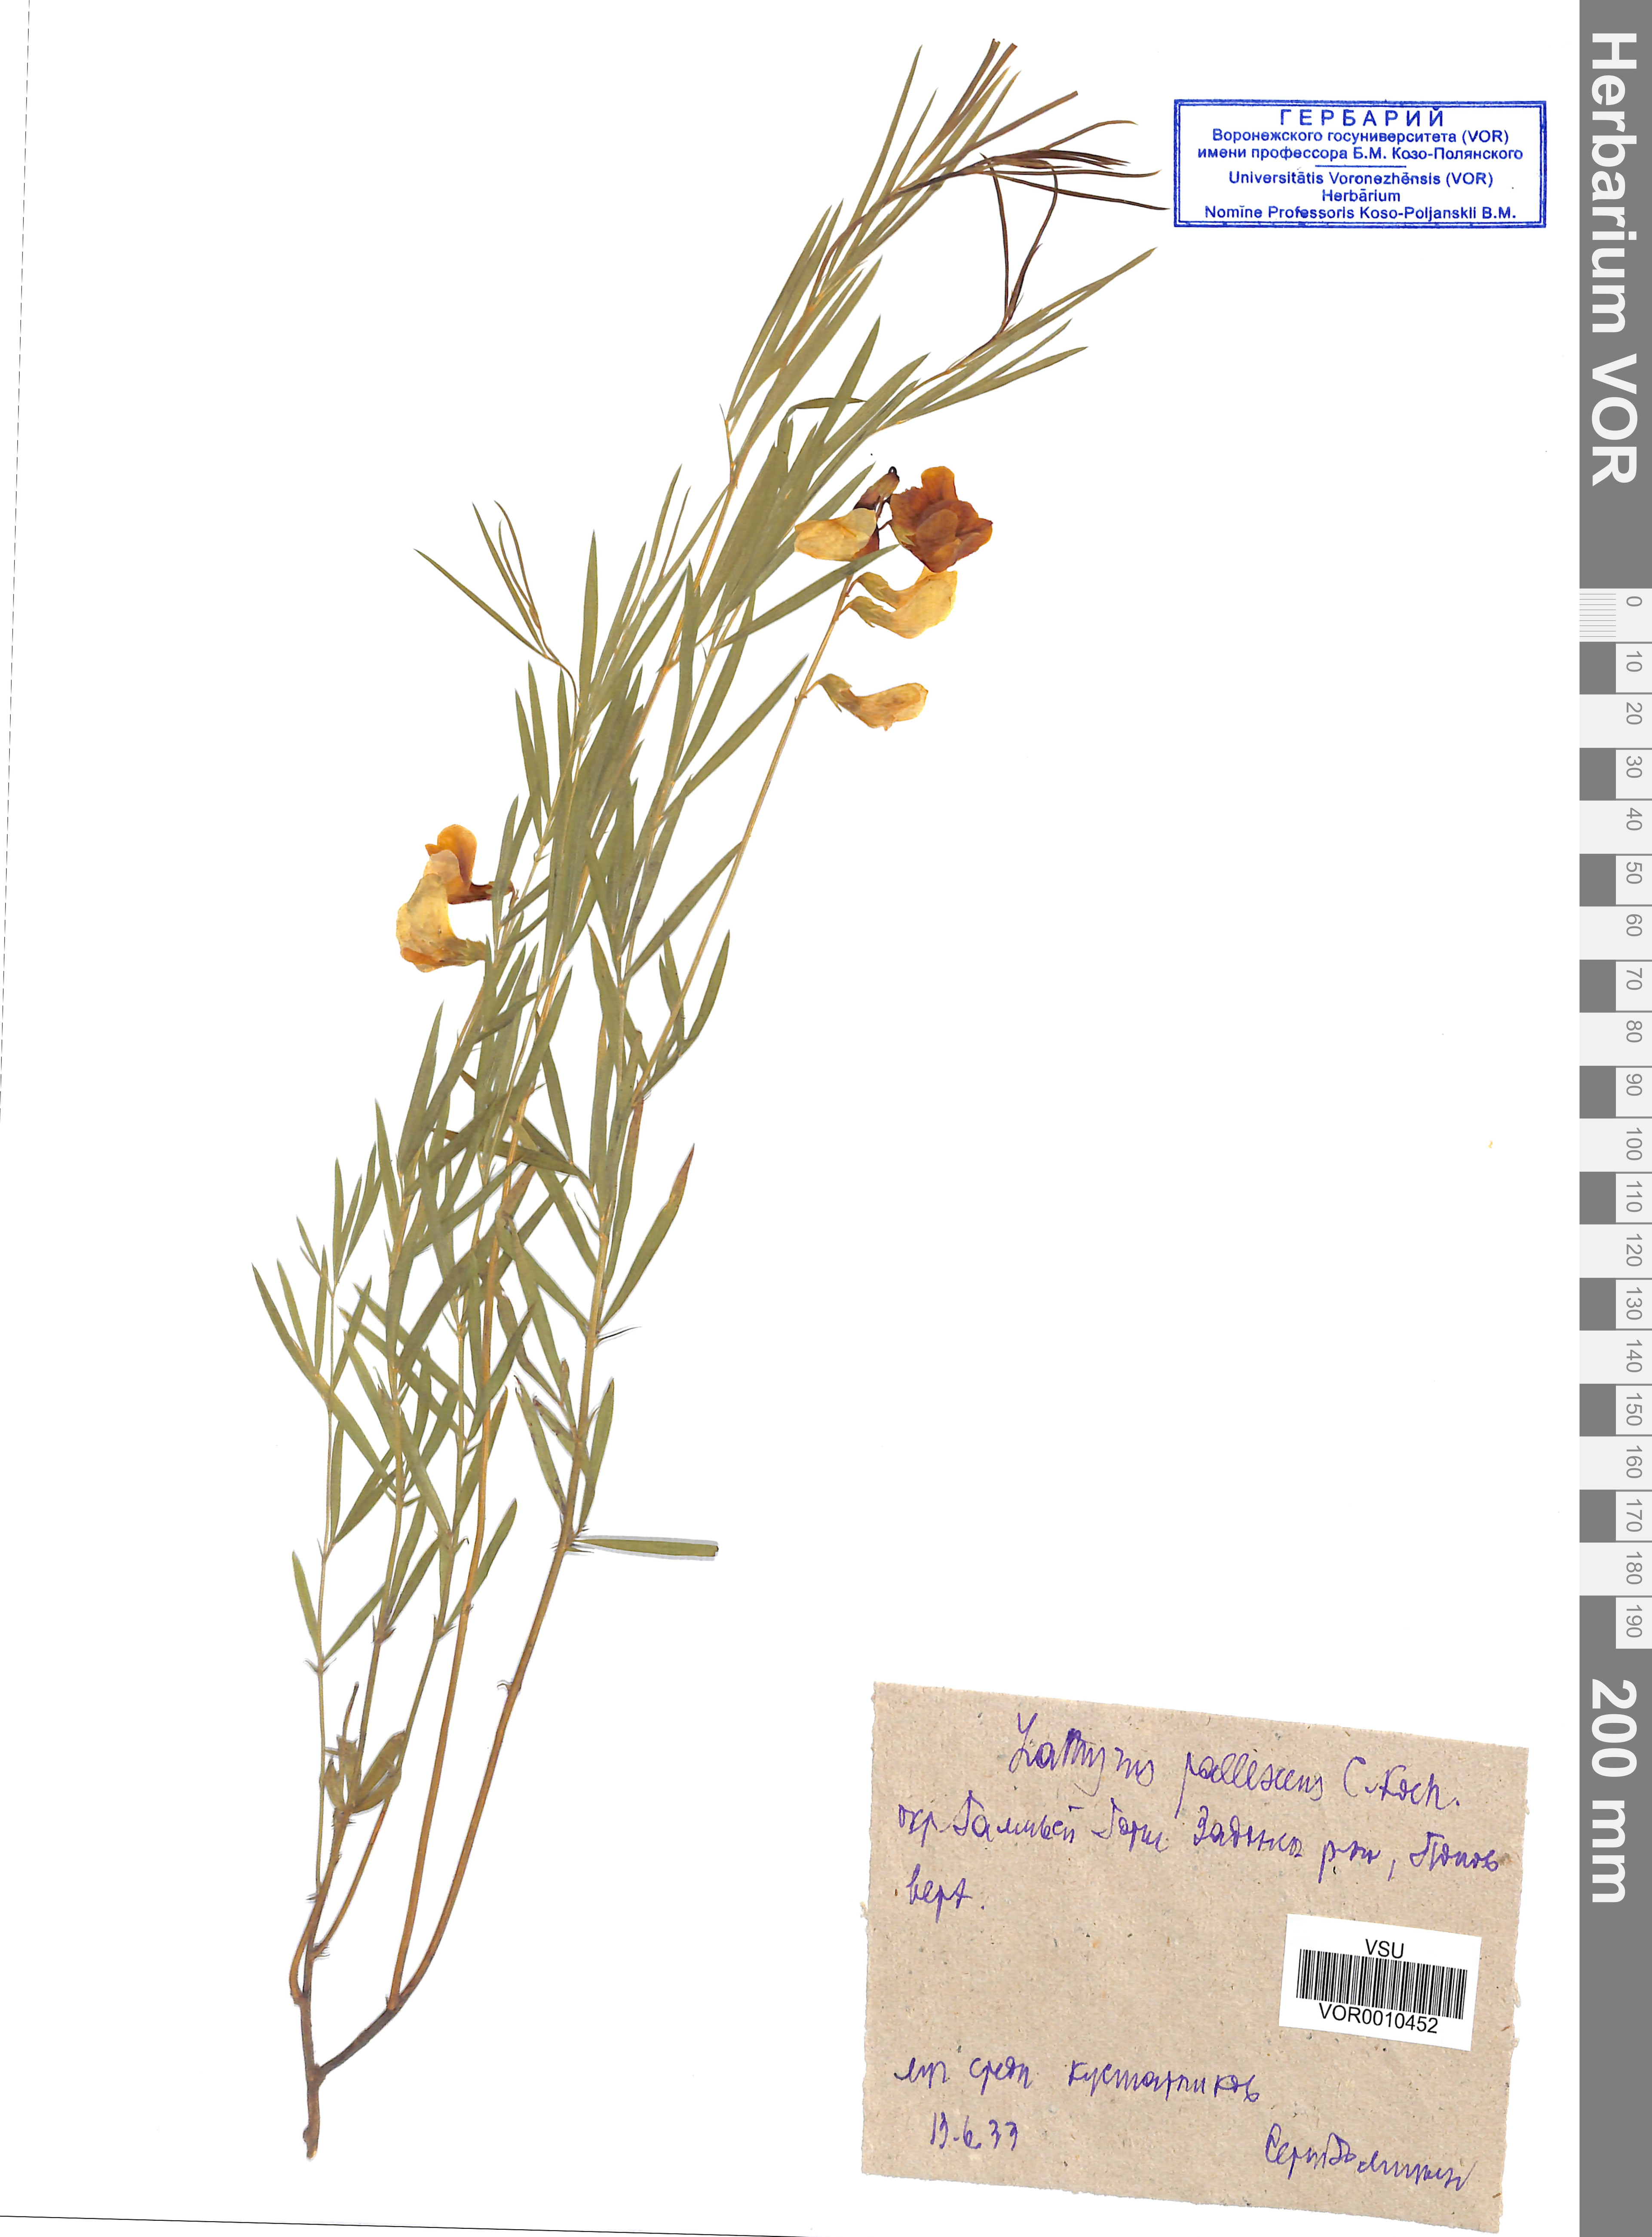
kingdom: Plantae
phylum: Tracheophyta
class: Magnoliopsida
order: Fabales
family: Fabaceae
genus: Lathyrus
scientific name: Lathyrus filiformis
